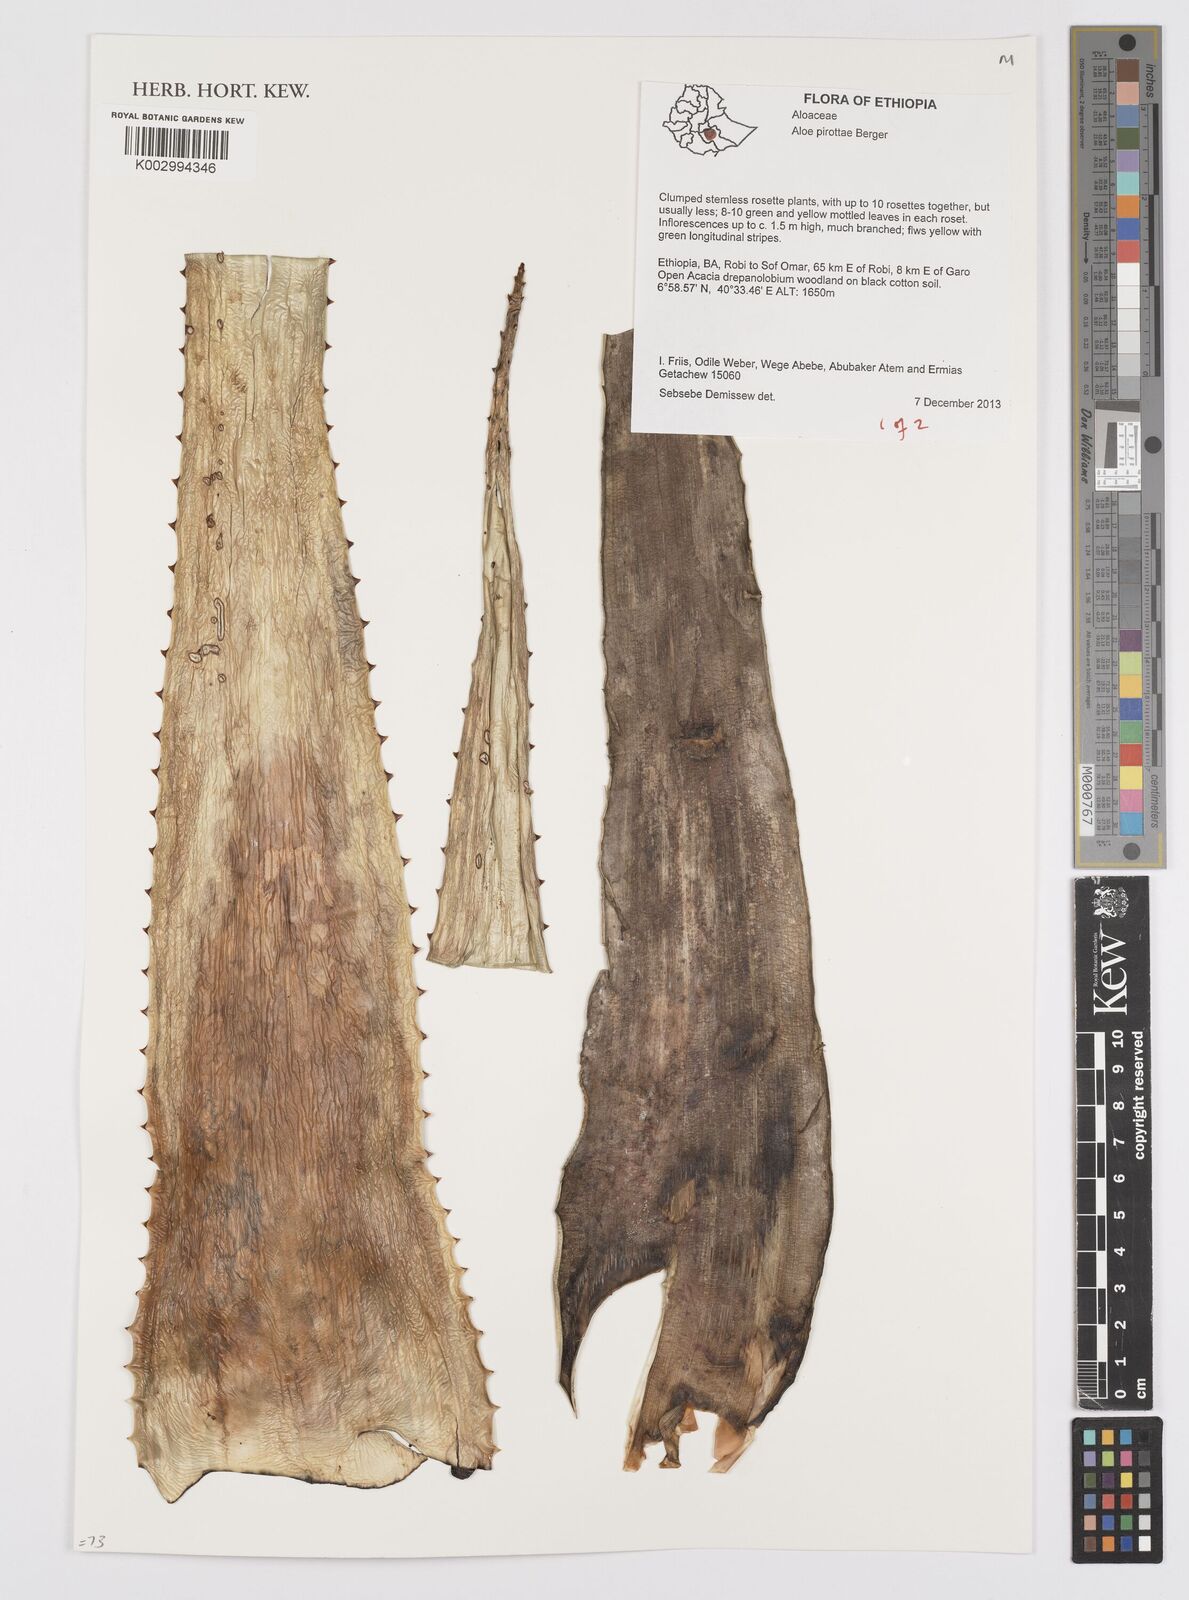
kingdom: Plantae
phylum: Tracheophyta
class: Liliopsida
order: Asparagales
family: Asphodelaceae
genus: Aloe
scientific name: Aloe pirottae
